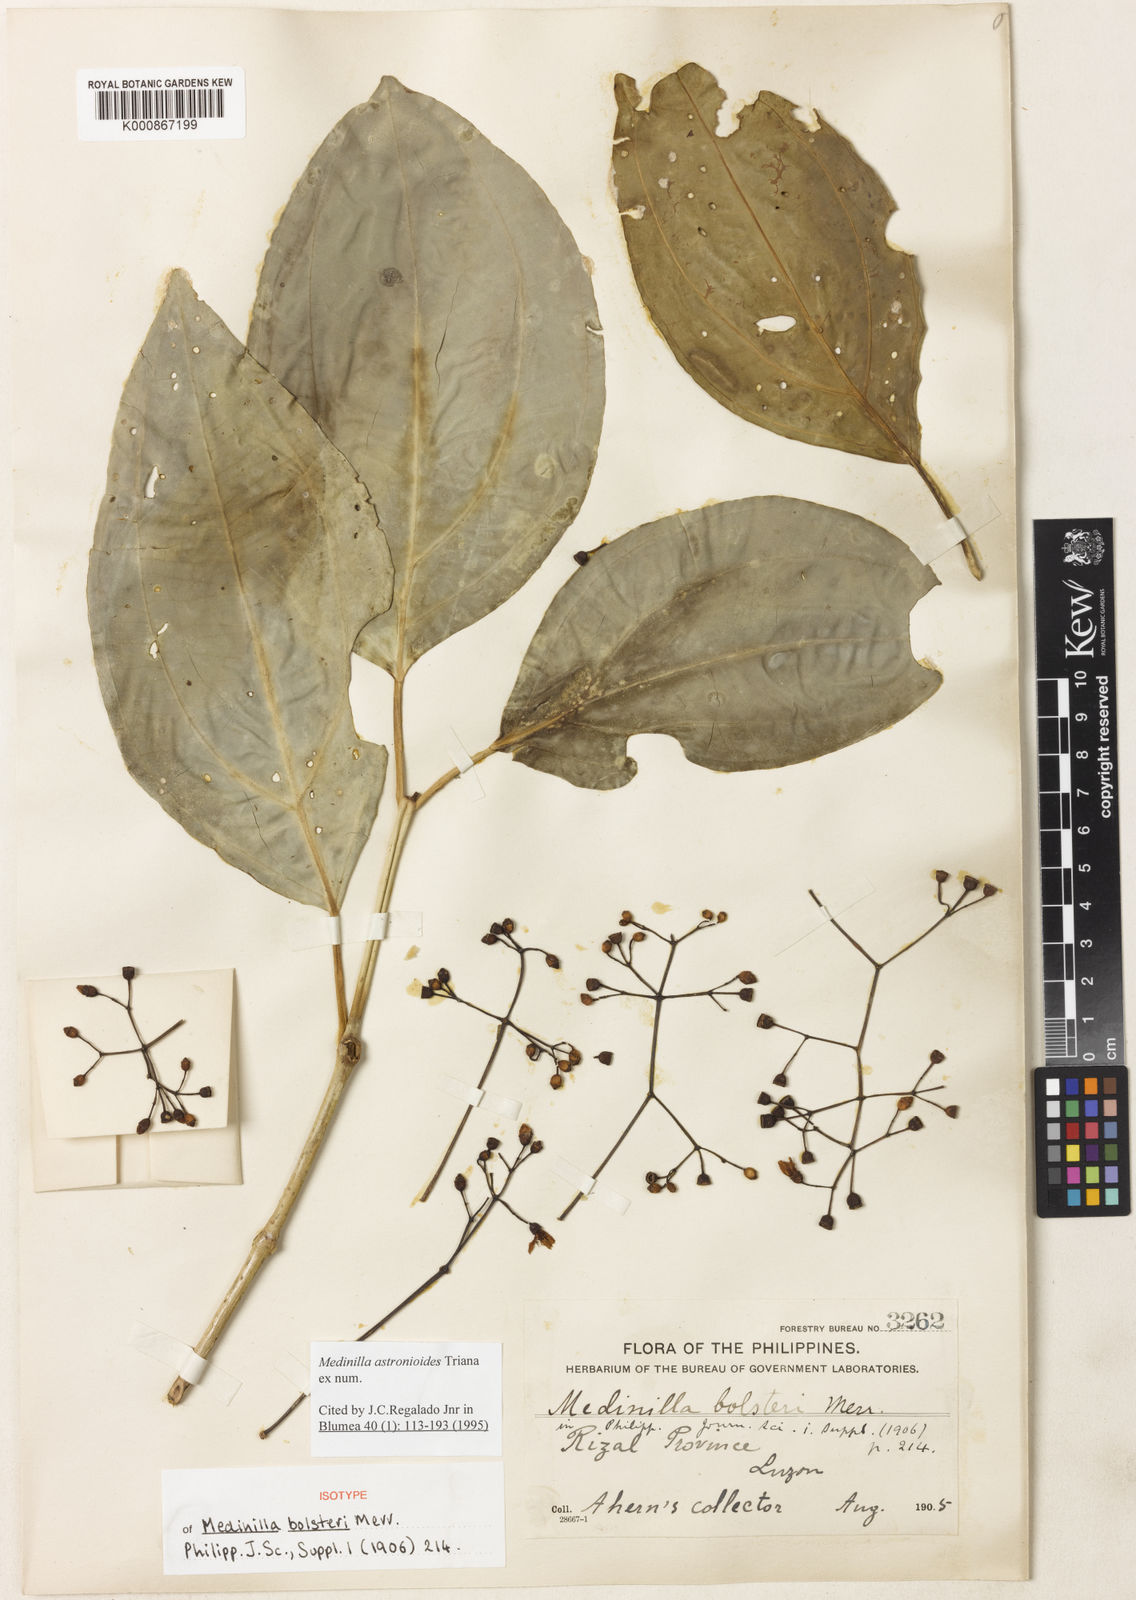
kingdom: Plantae
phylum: Tracheophyta
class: Magnoliopsida
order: Myrtales
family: Melastomataceae
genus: Medinilla
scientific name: Medinilla astronioides
